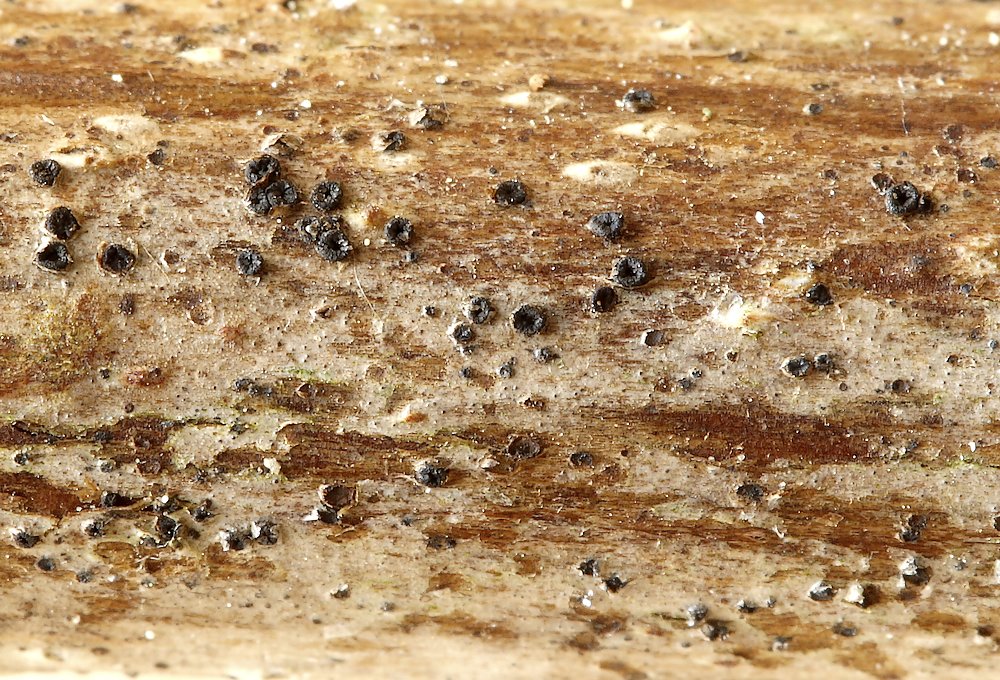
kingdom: Fungi
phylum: Ascomycota
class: Leotiomycetes
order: Helotiales
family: Ploettnerulaceae
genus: Pyrenopeziza
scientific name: Pyrenopeziza rubi
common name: hindbær-kerneskive
